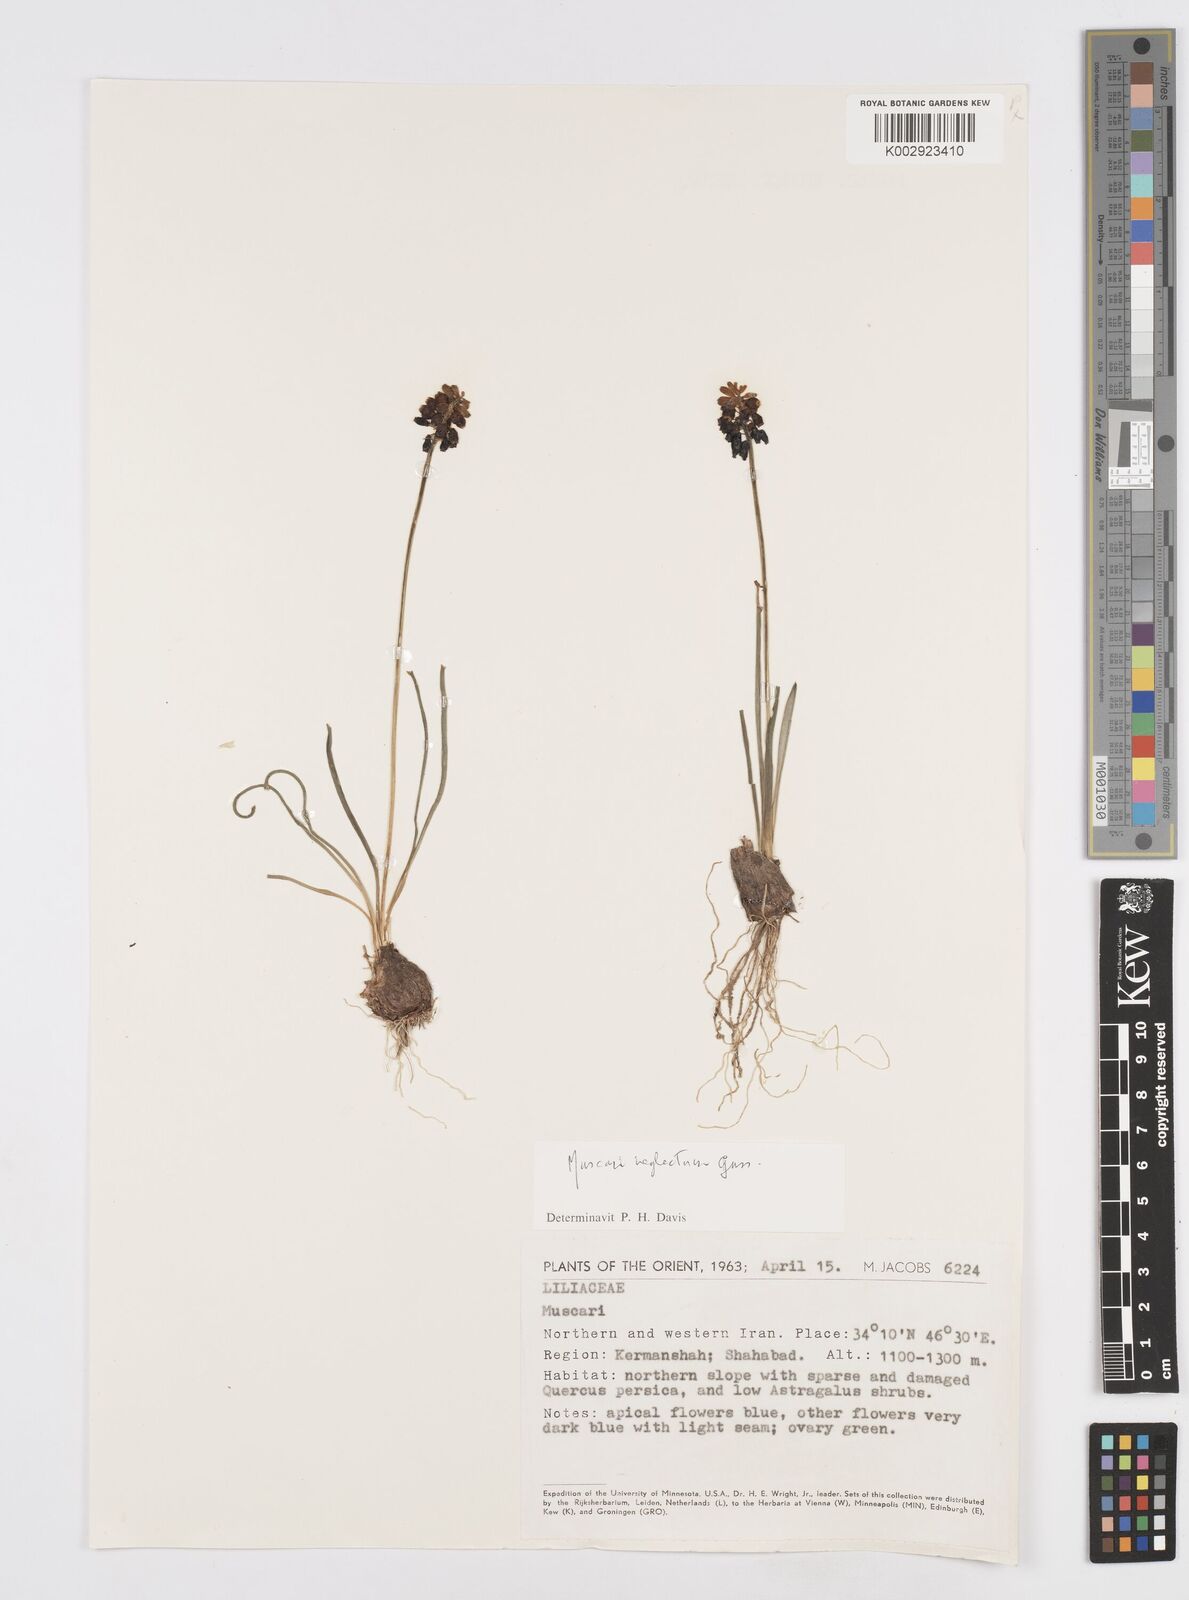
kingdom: Plantae
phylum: Tracheophyta
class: Liliopsida
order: Asparagales
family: Asparagaceae
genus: Muscari
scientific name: Muscari neglectum
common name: Grape-hyacinth
